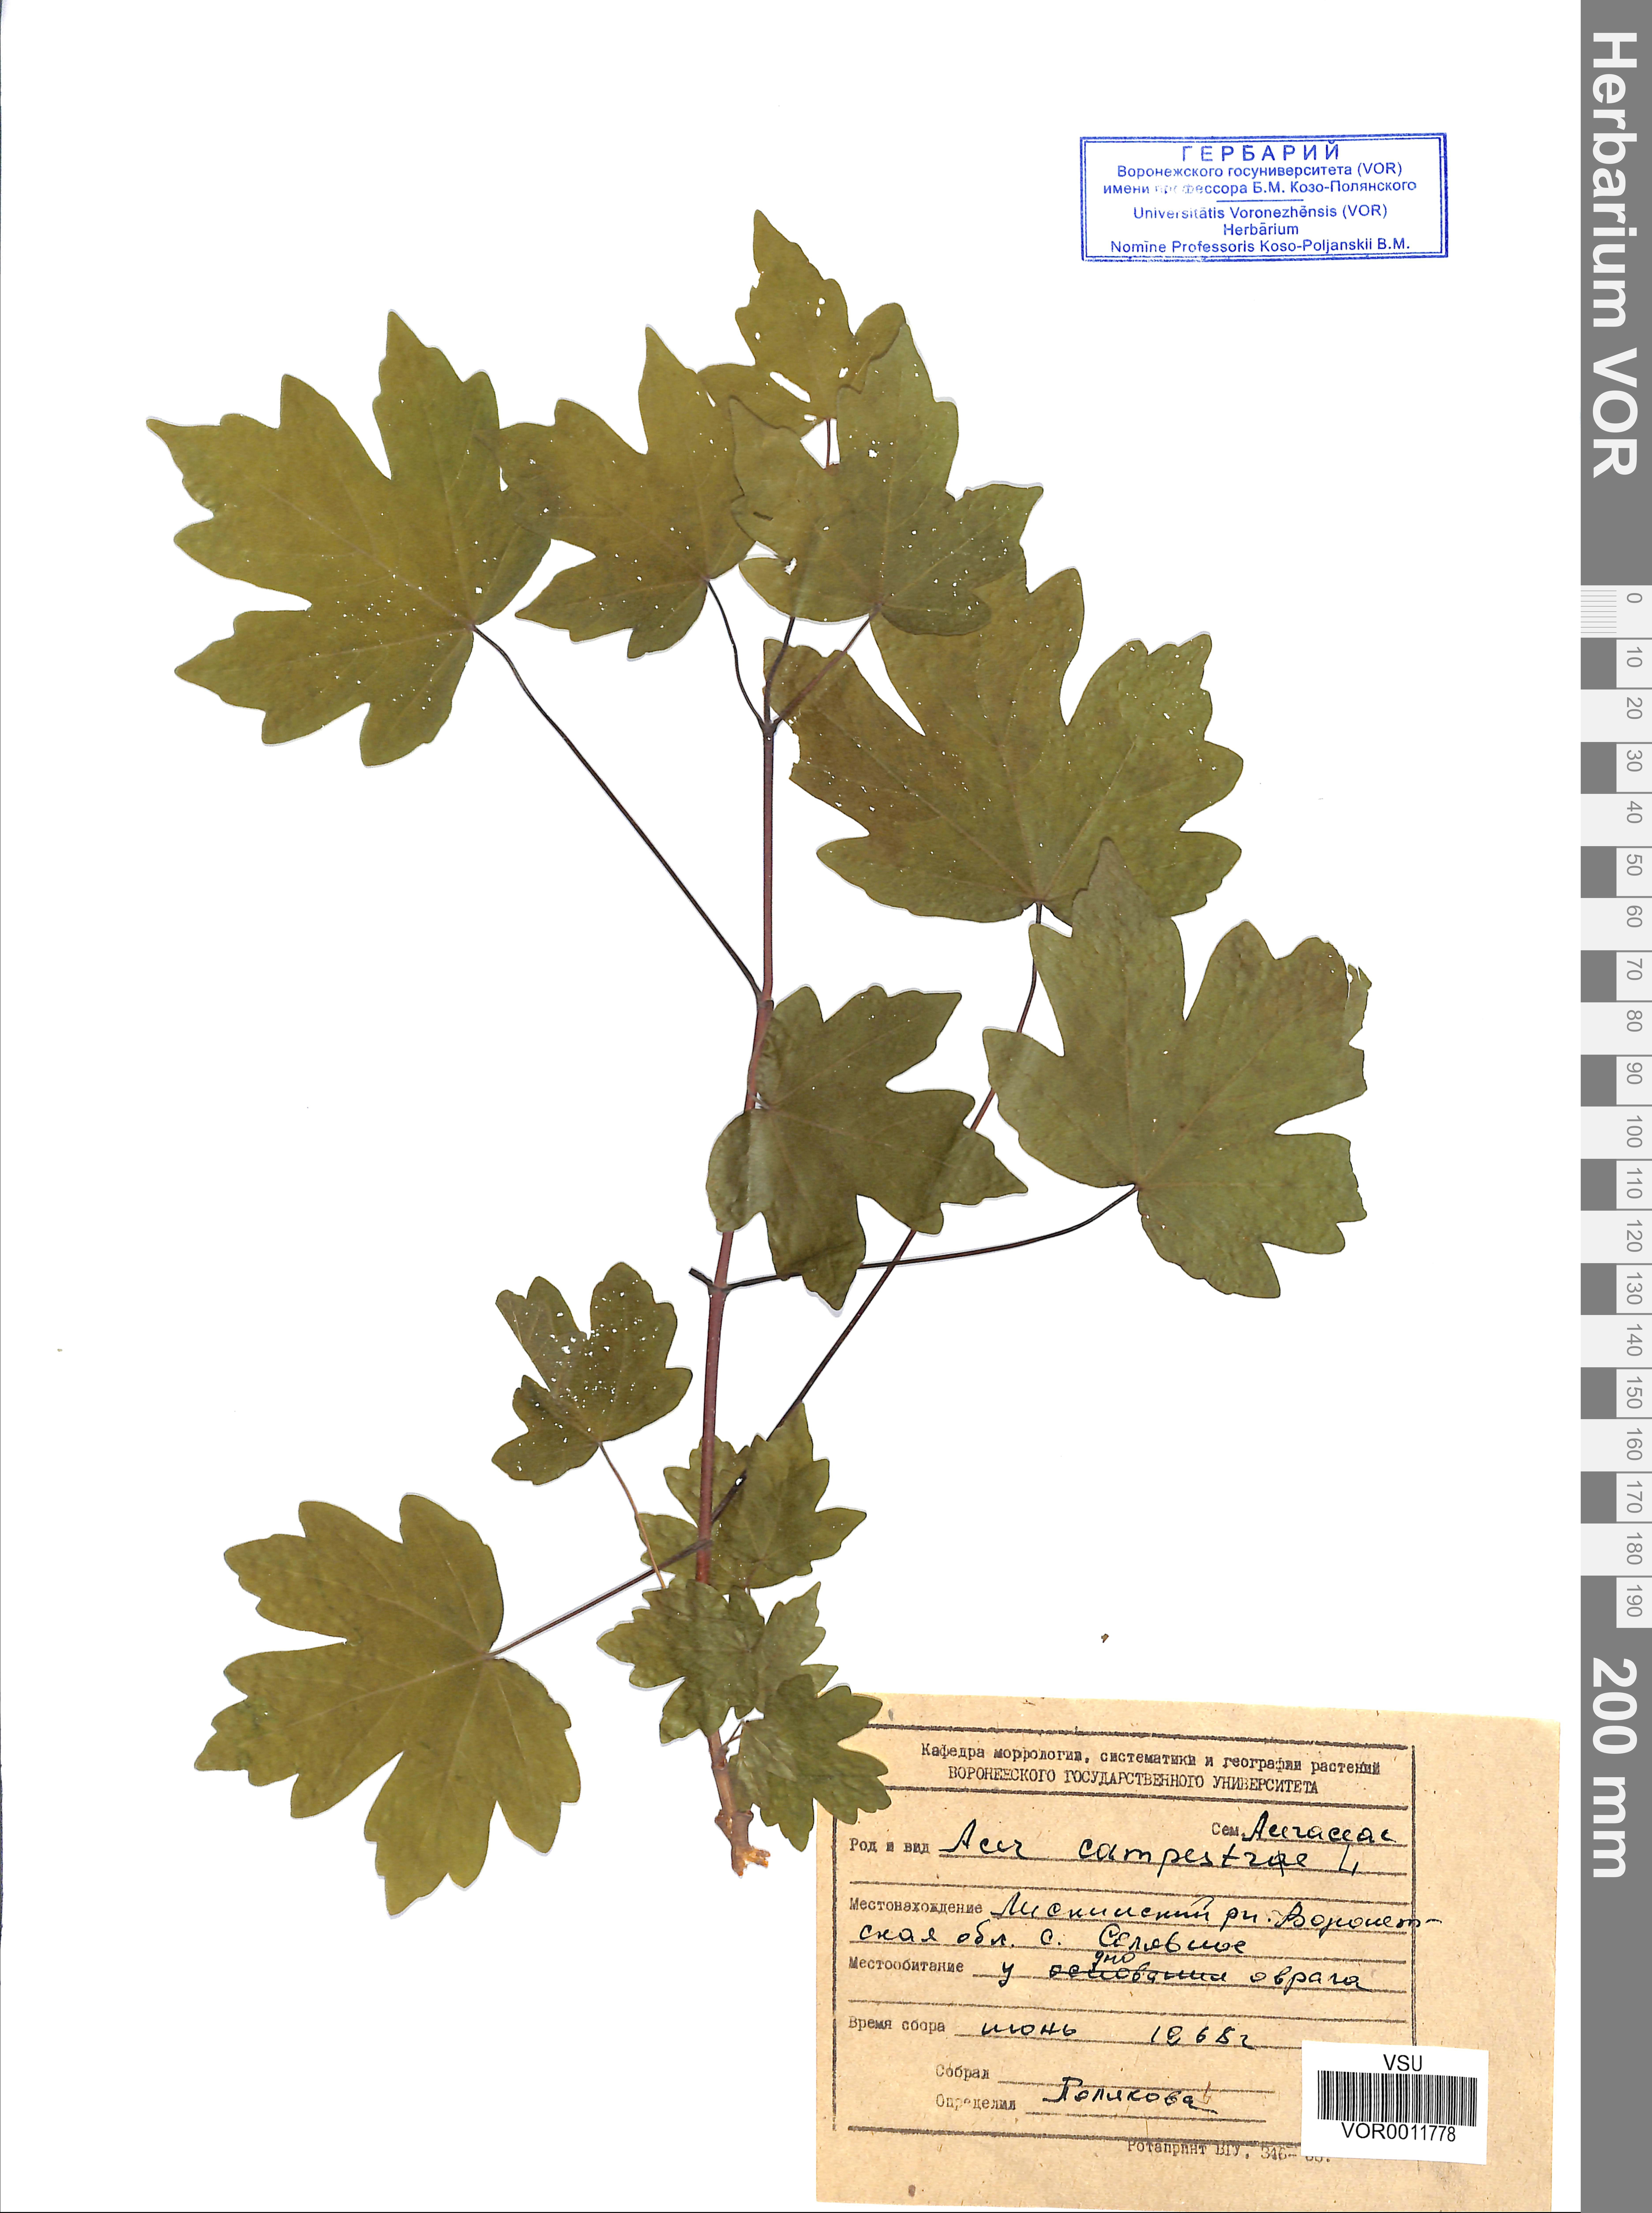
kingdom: Plantae
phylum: Tracheophyta
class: Magnoliopsida
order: Sapindales
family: Sapindaceae
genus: Acer
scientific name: Acer campestre
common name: Field maple
